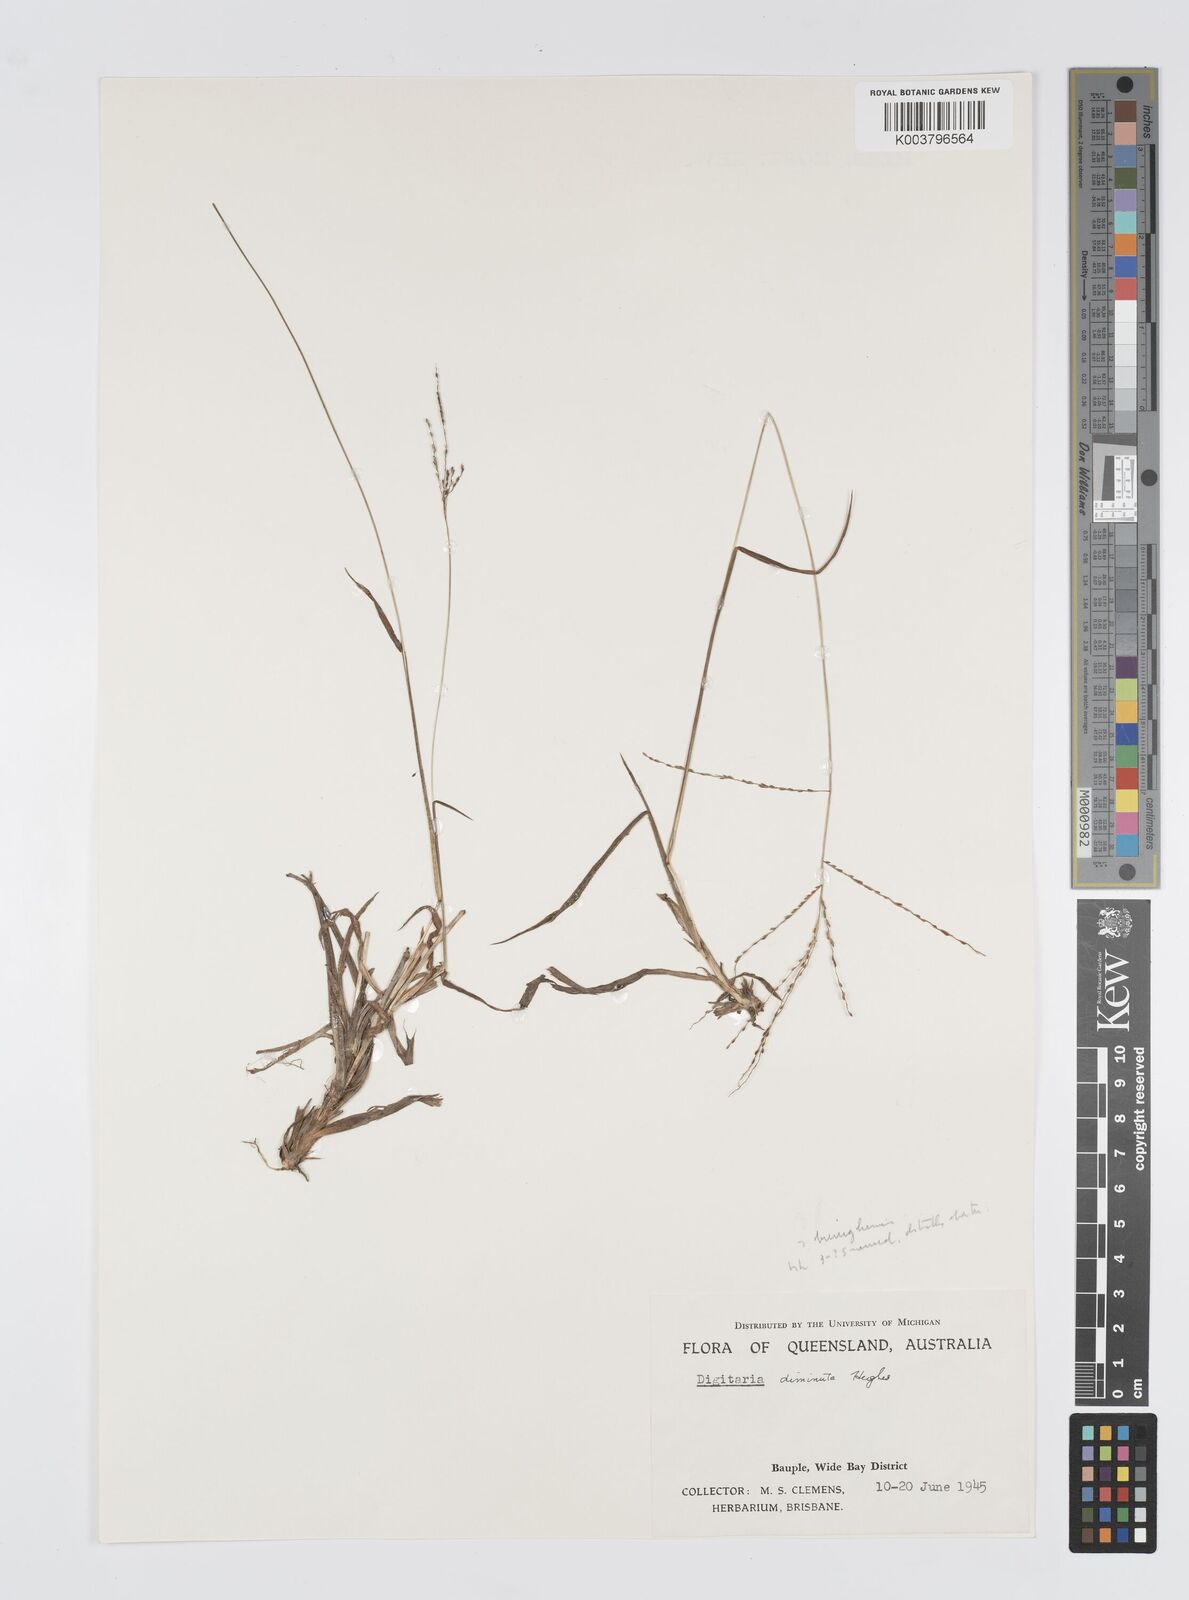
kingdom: Plantae
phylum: Tracheophyta
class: Liliopsida
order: Poales
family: Poaceae
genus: Digitaria
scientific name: Digitaria breviglumis
